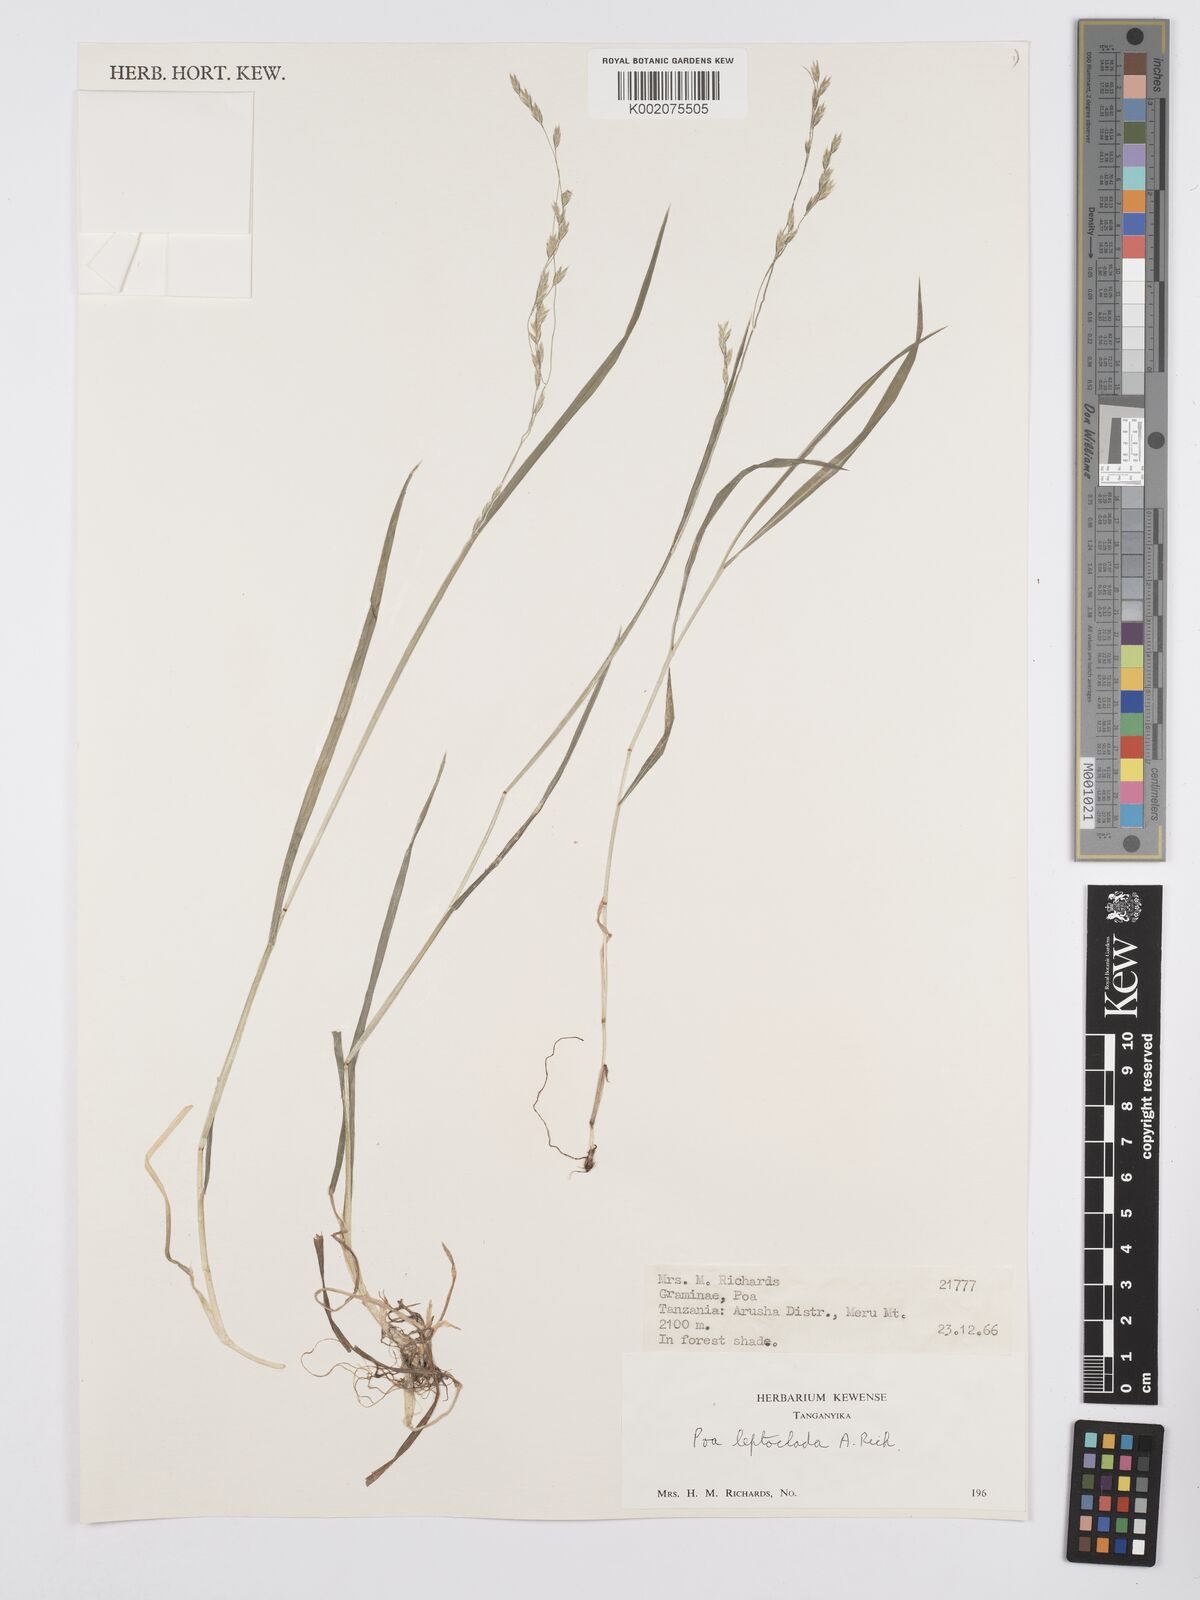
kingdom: Plantae
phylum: Tracheophyta
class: Liliopsida
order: Poales
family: Poaceae
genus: Poa
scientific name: Poa leptoclada
